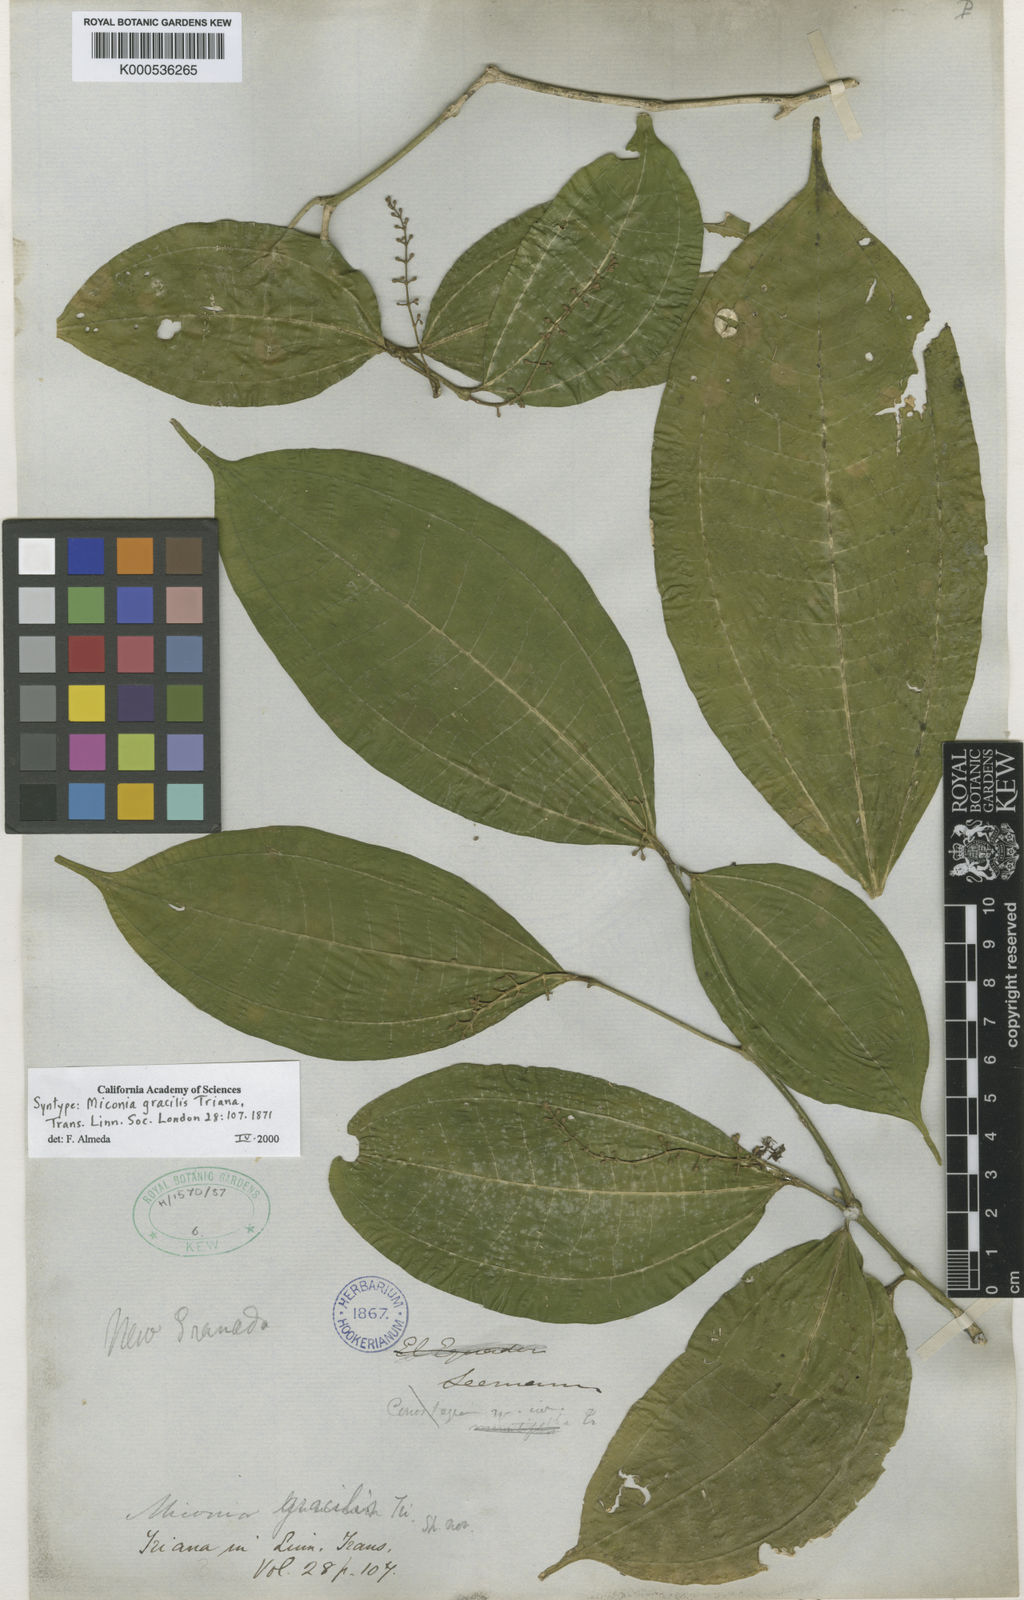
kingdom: Plantae
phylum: Tracheophyta
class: Magnoliopsida
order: Myrtales
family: Melastomataceae
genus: Miconia
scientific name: Miconia gracilis
